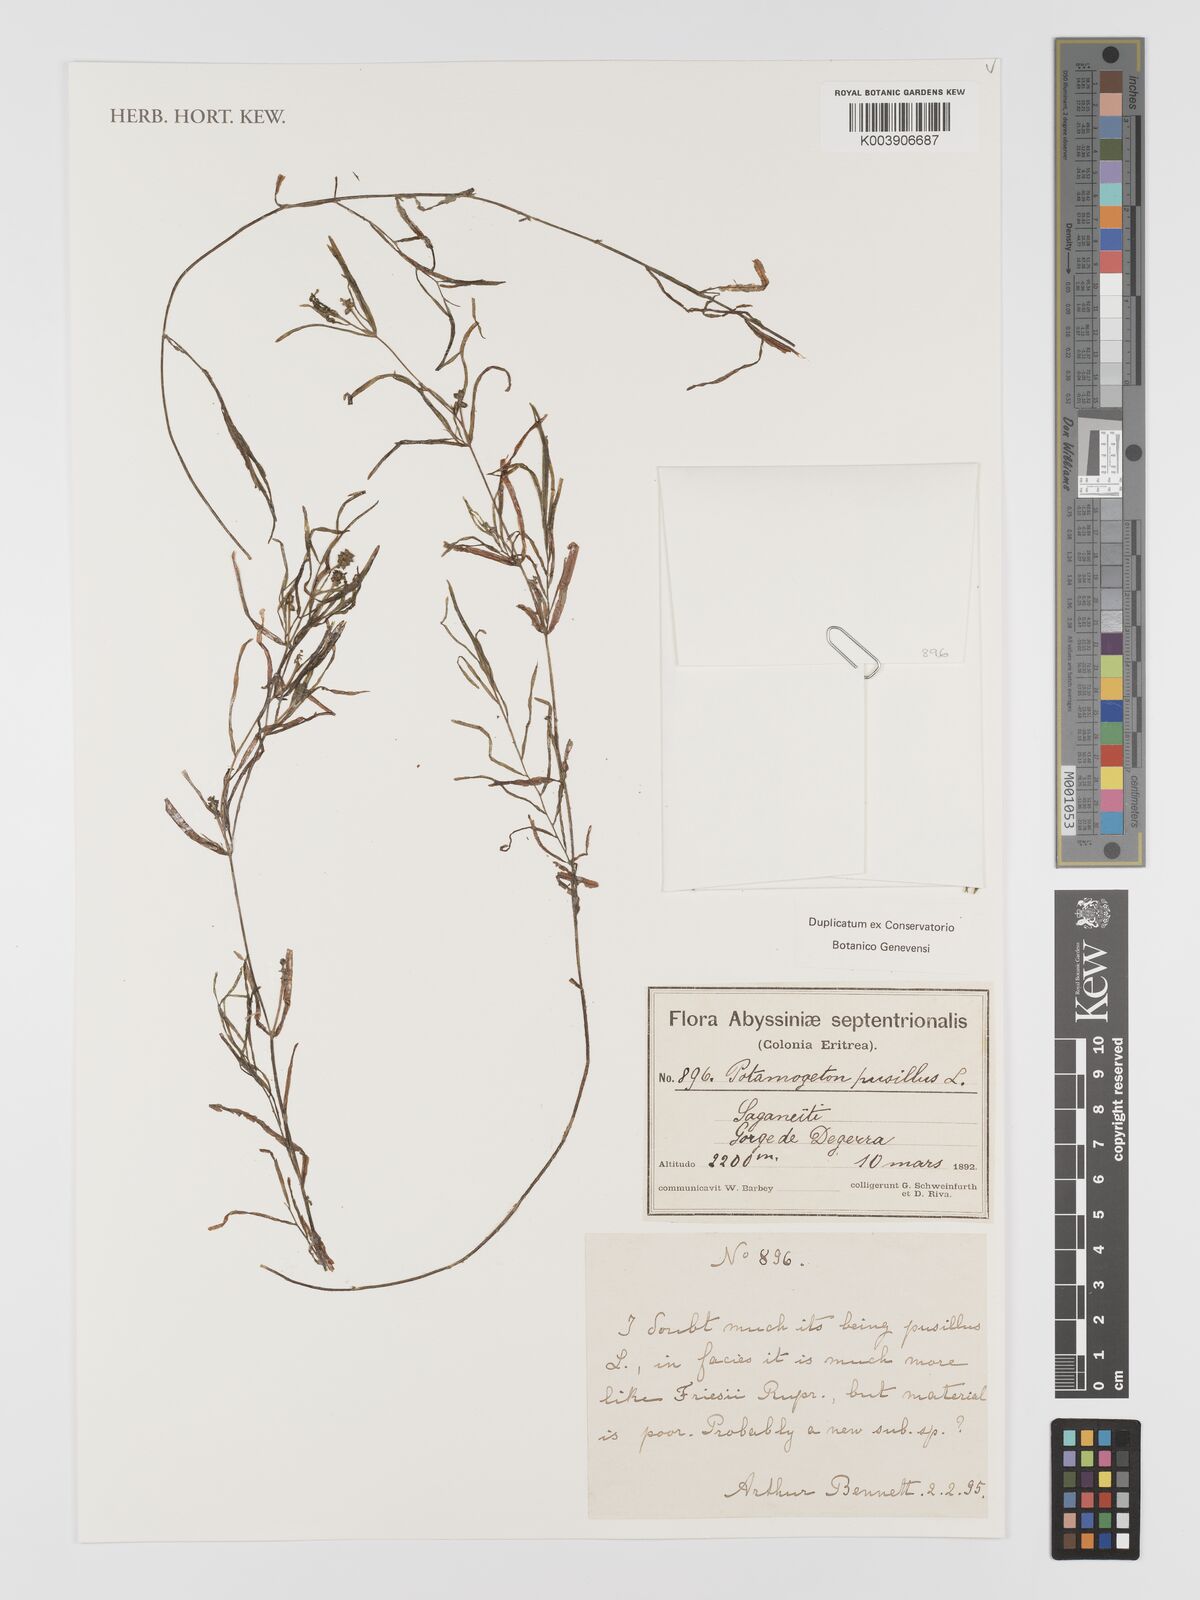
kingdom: Plantae
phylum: Tracheophyta
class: Liliopsida
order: Alismatales
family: Potamogetonaceae
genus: Potamogeton
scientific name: Potamogeton pusillus
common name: Lesser pondweed
